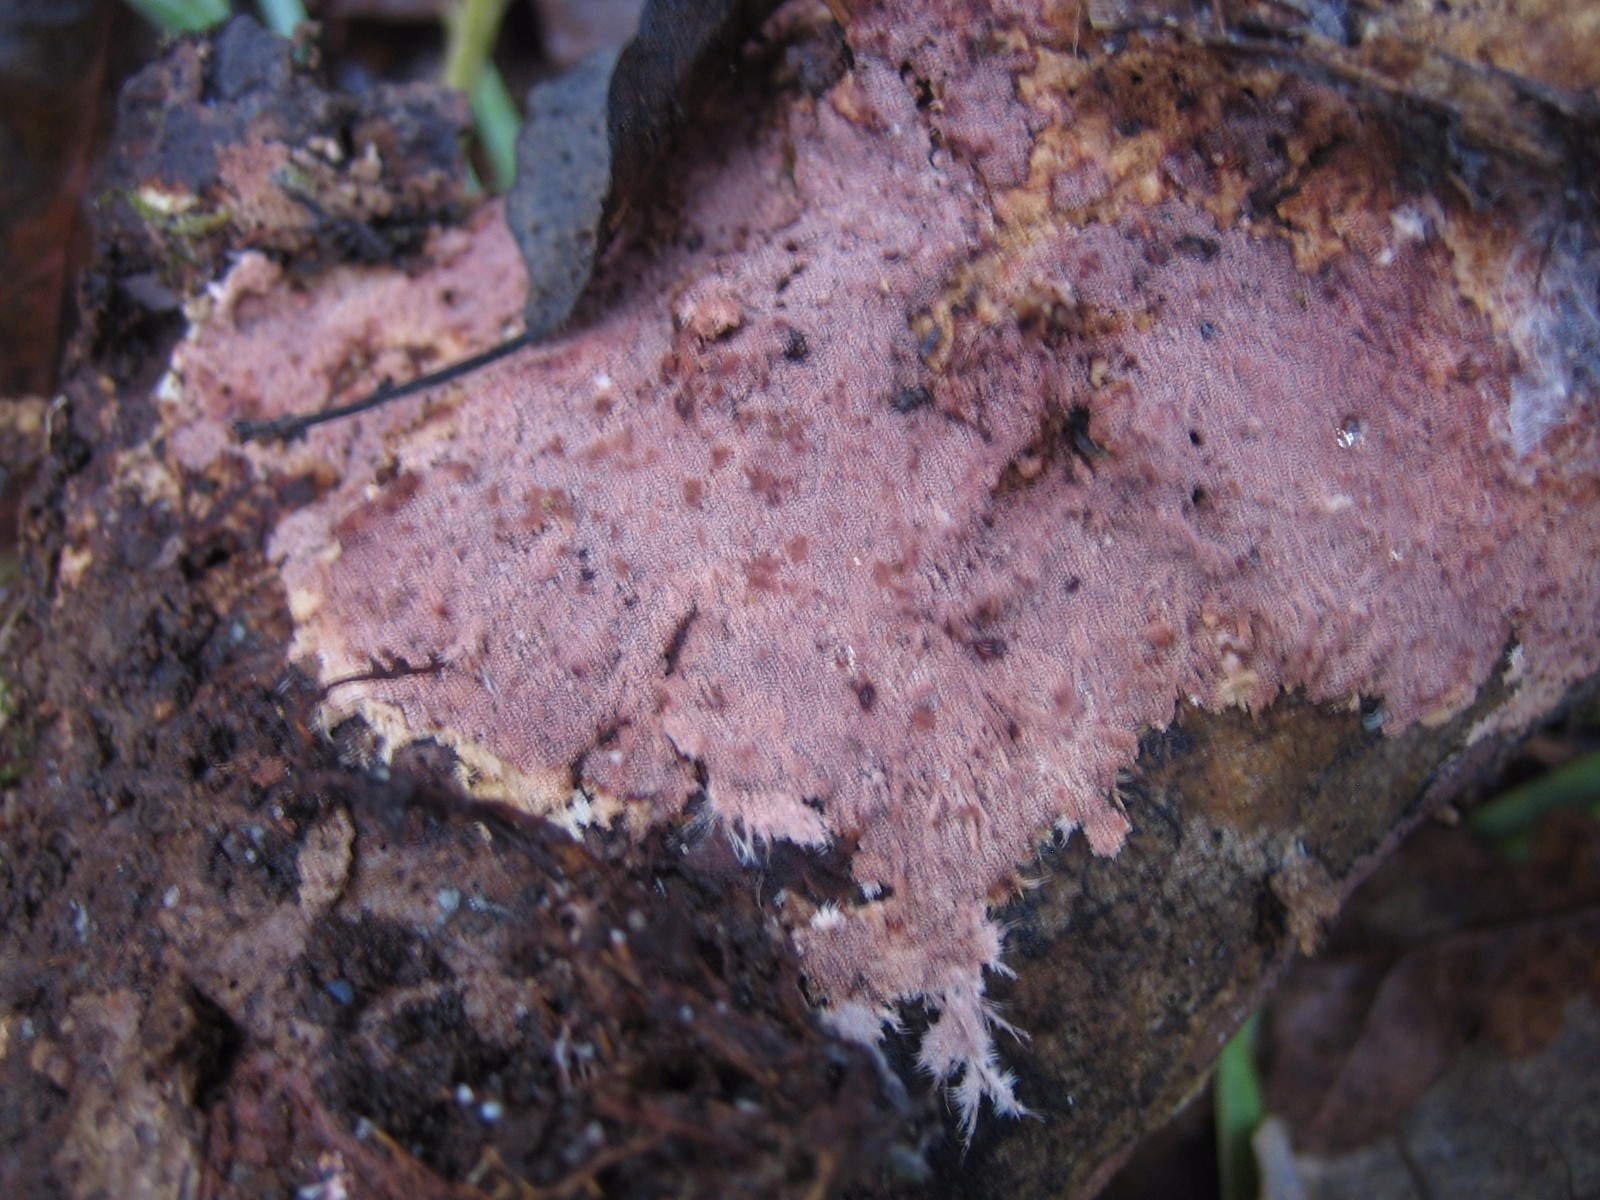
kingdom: Fungi
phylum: Basidiomycota
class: Agaricomycetes
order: Polyporales
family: Steccherinaceae
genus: Steccherinum
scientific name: Steccherinum fimbriatum
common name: trådet skønpig
